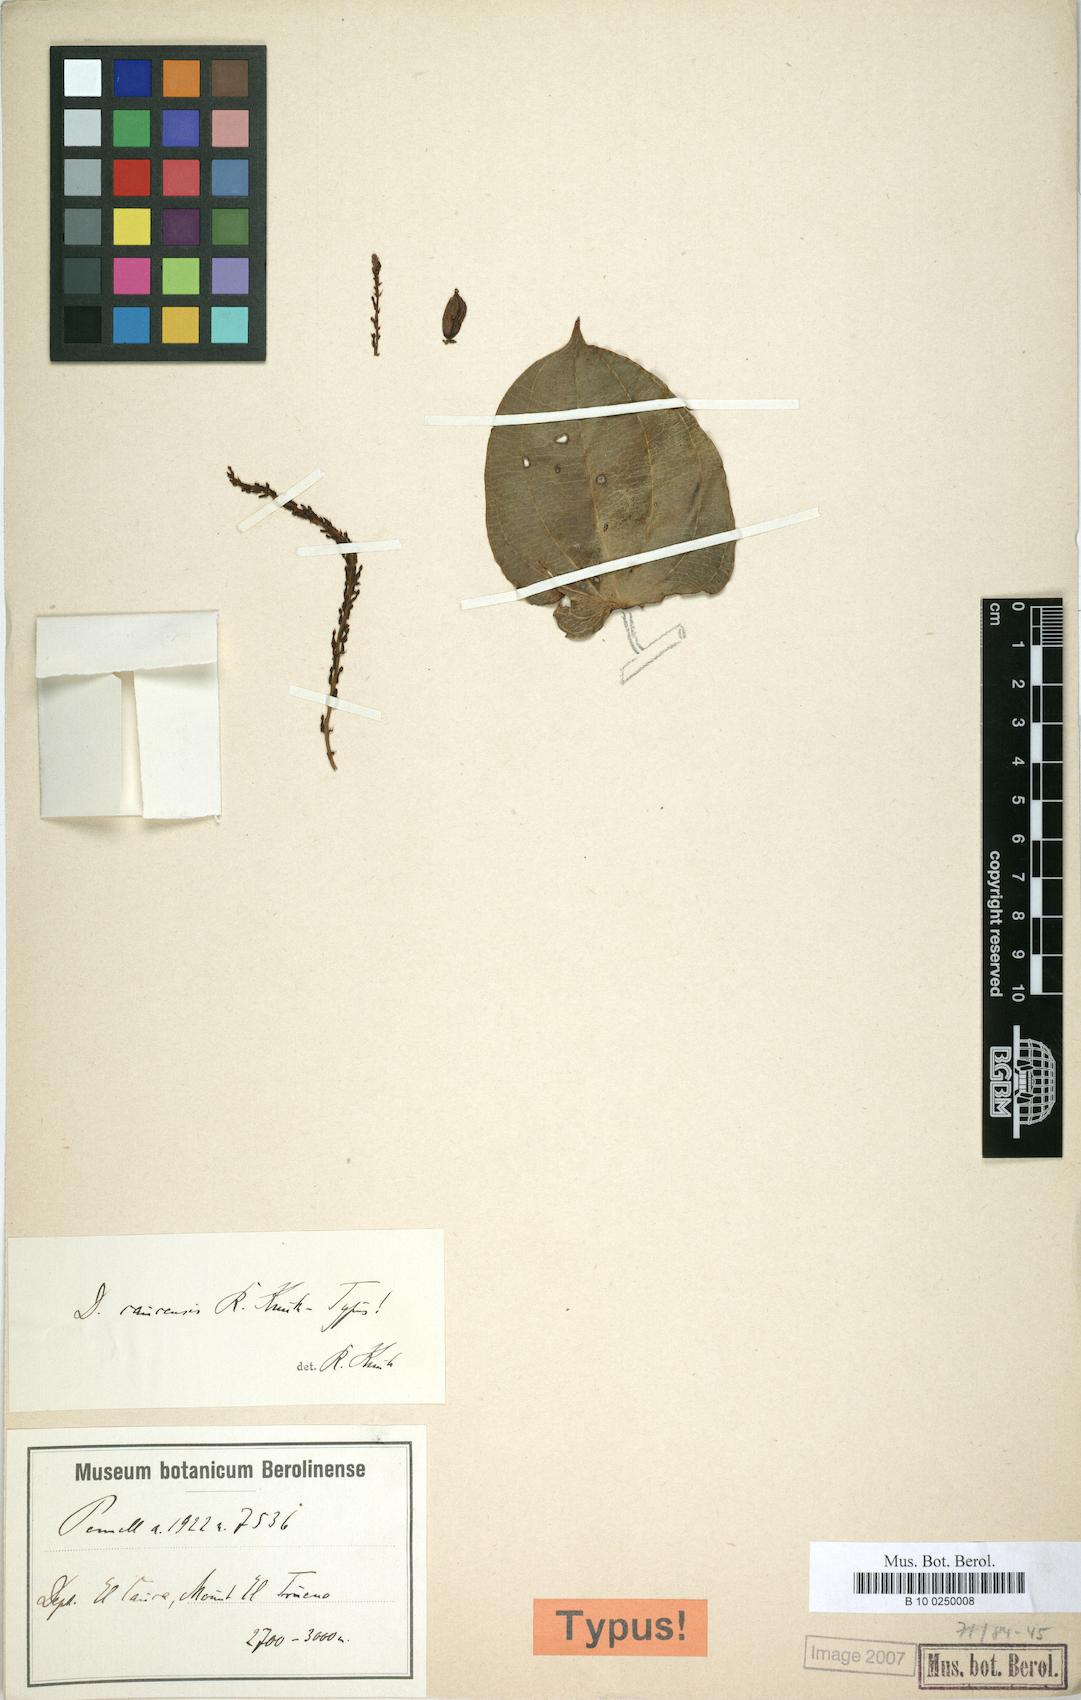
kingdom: Plantae
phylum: Tracheophyta
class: Liliopsida
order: Dioscoreales
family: Dioscoreaceae
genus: Dioscorea
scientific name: Dioscorea caucensis
